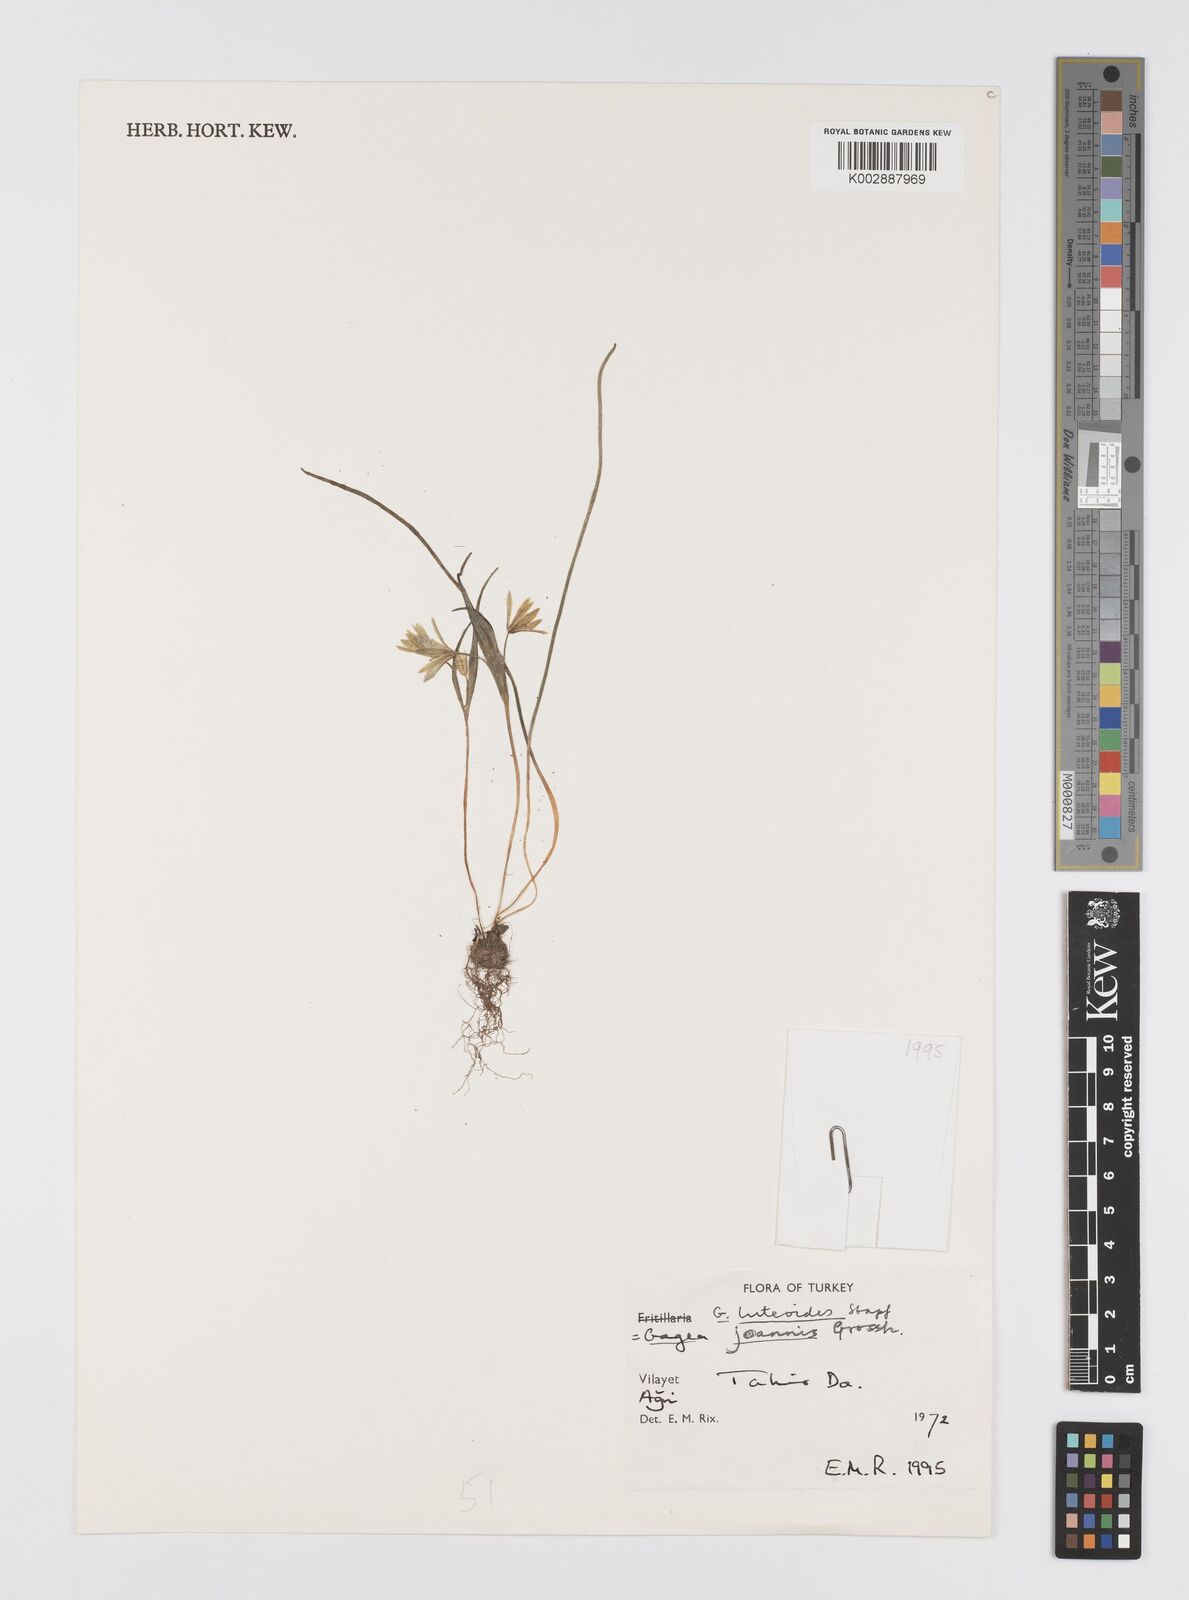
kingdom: Plantae
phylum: Tracheophyta
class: Liliopsida
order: Liliales
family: Liliaceae
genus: Gagea
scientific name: Gagea luteoides
